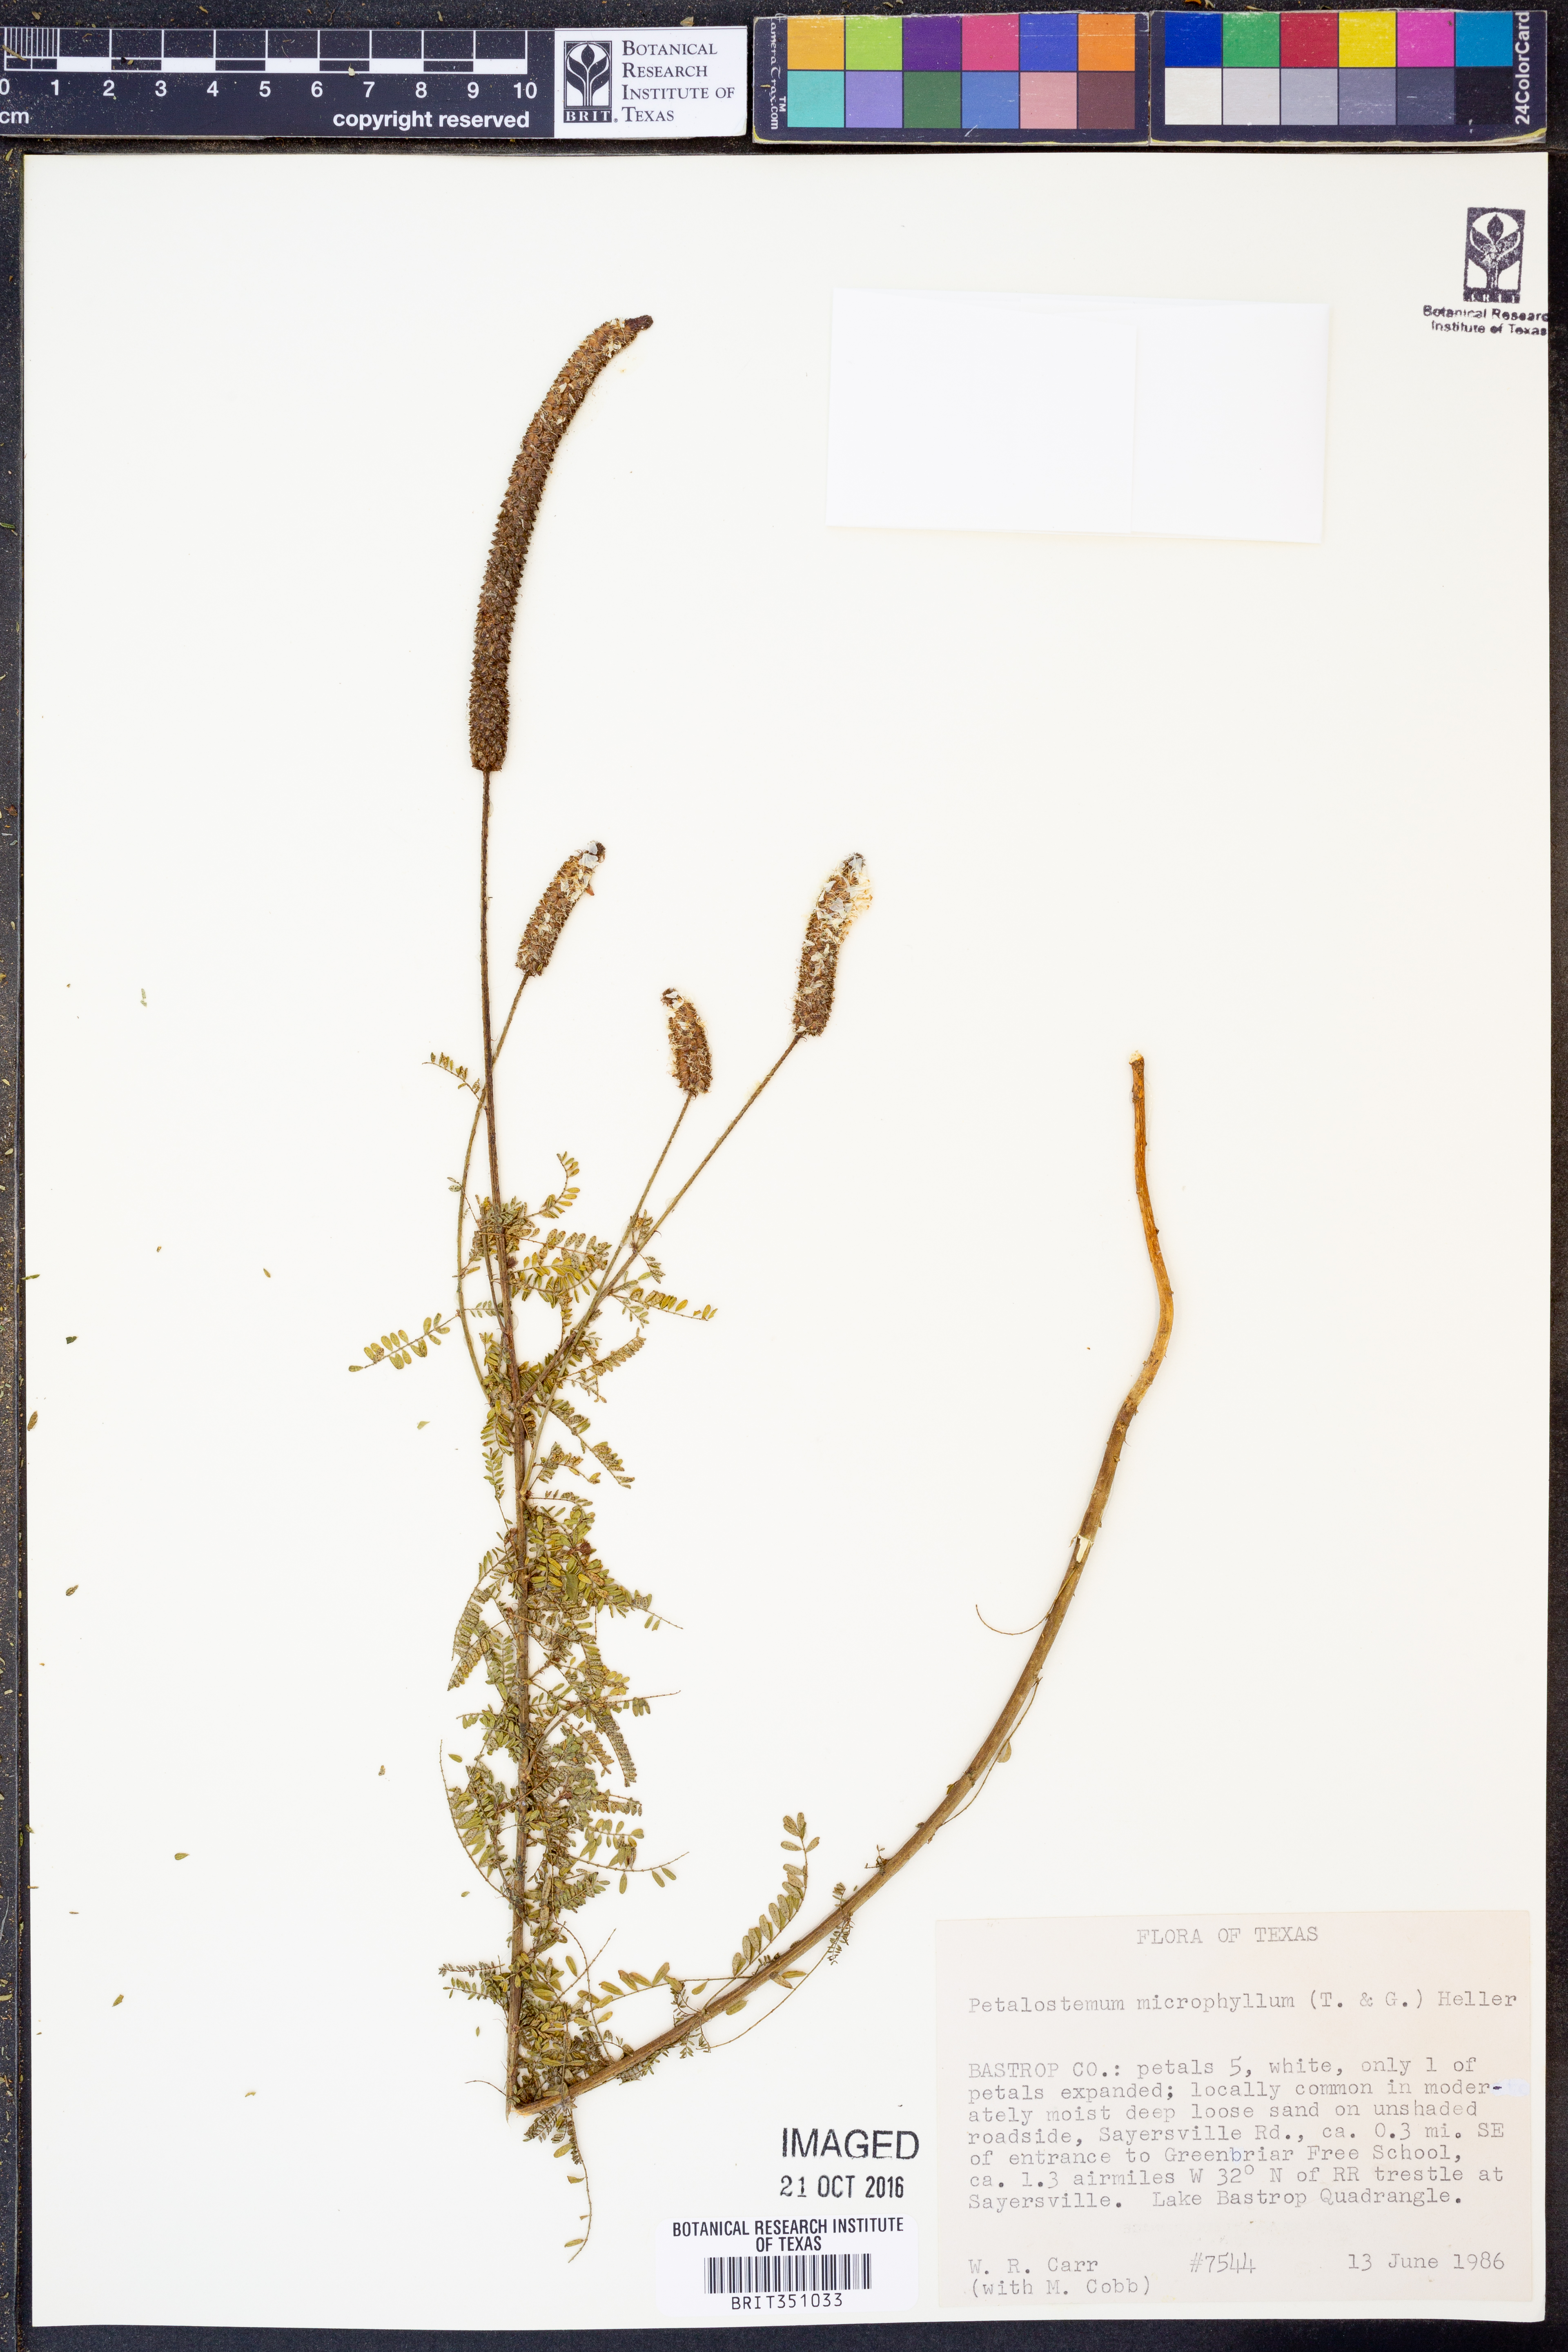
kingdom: Plantae
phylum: Tracheophyta
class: Magnoliopsida
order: Fabales
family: Fabaceae
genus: Dalea
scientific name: Dalea drummondiana
